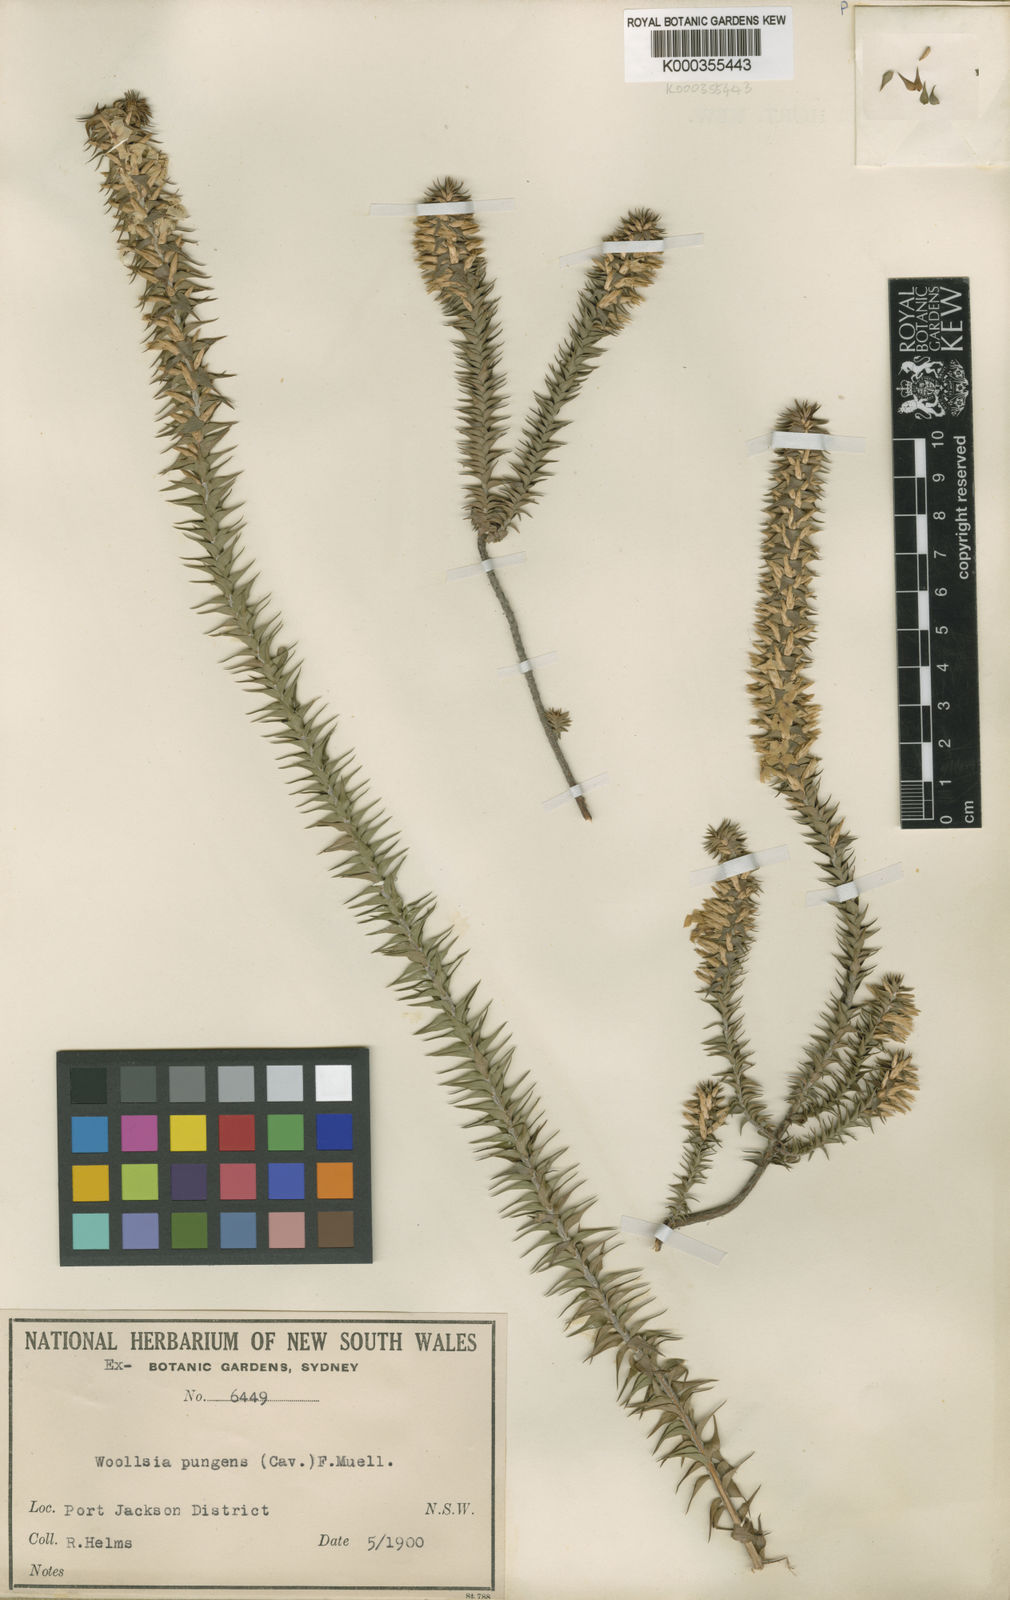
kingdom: Plantae
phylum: Tracheophyta
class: Magnoliopsida
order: Ericales
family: Ericaceae
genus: Woollsia
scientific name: Woollsia pungens
